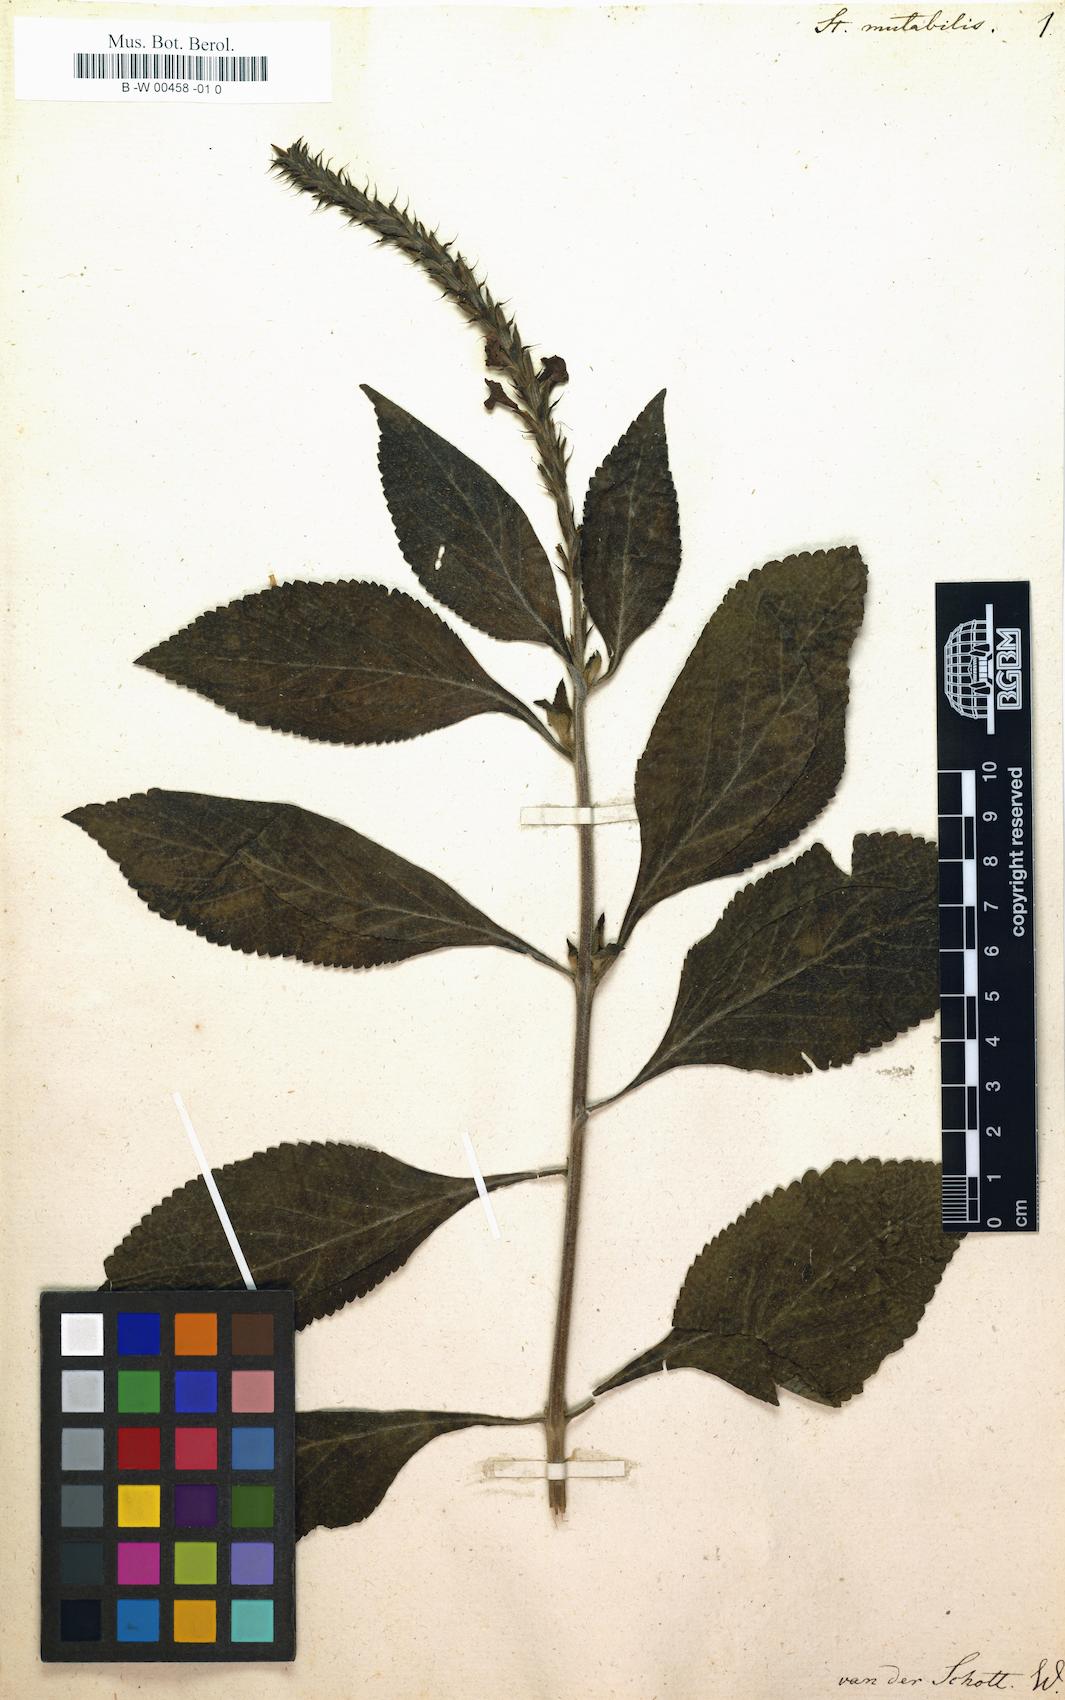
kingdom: Plantae
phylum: Tracheophyta
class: Magnoliopsida
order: Lamiales
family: Verbenaceae
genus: Stachytarpheta
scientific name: Stachytarpheta mutabilis
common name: Changeable velvetberry
